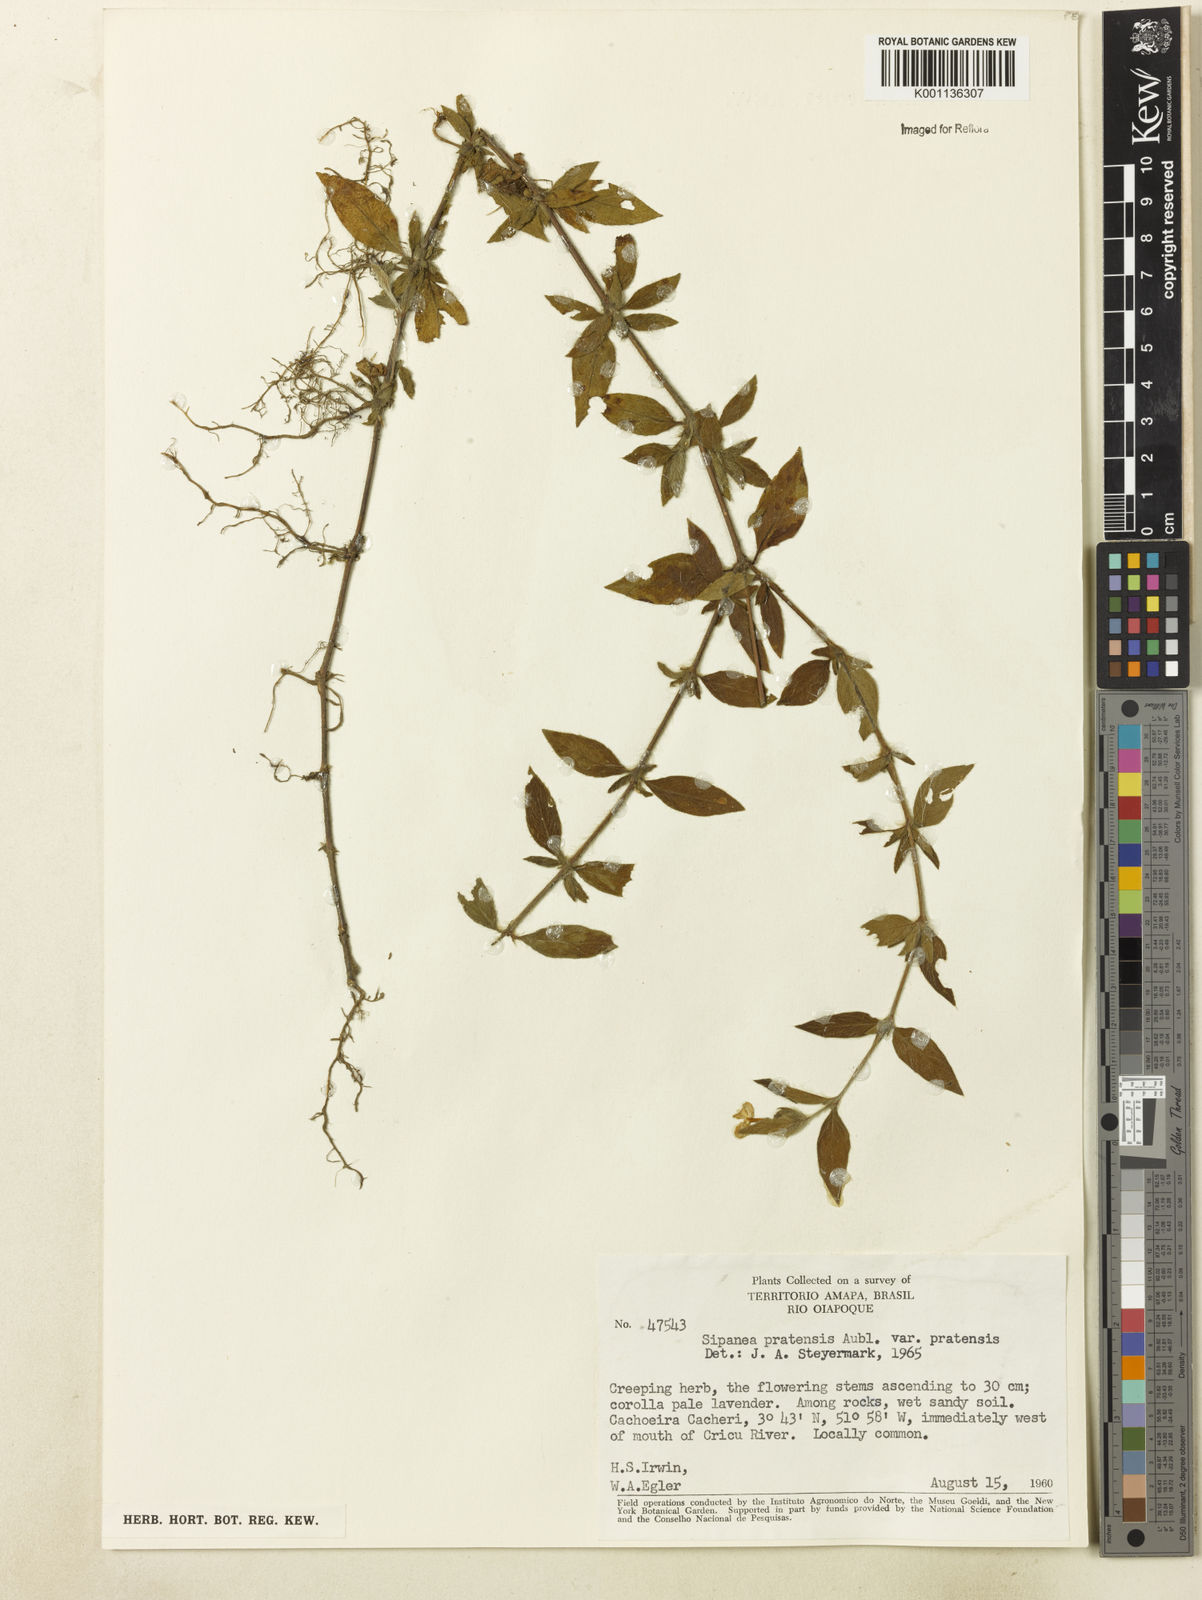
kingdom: Plantae
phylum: Tracheophyta
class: Magnoliopsida
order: Gentianales
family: Rubiaceae
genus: Sipanea
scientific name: Sipanea pratensis
